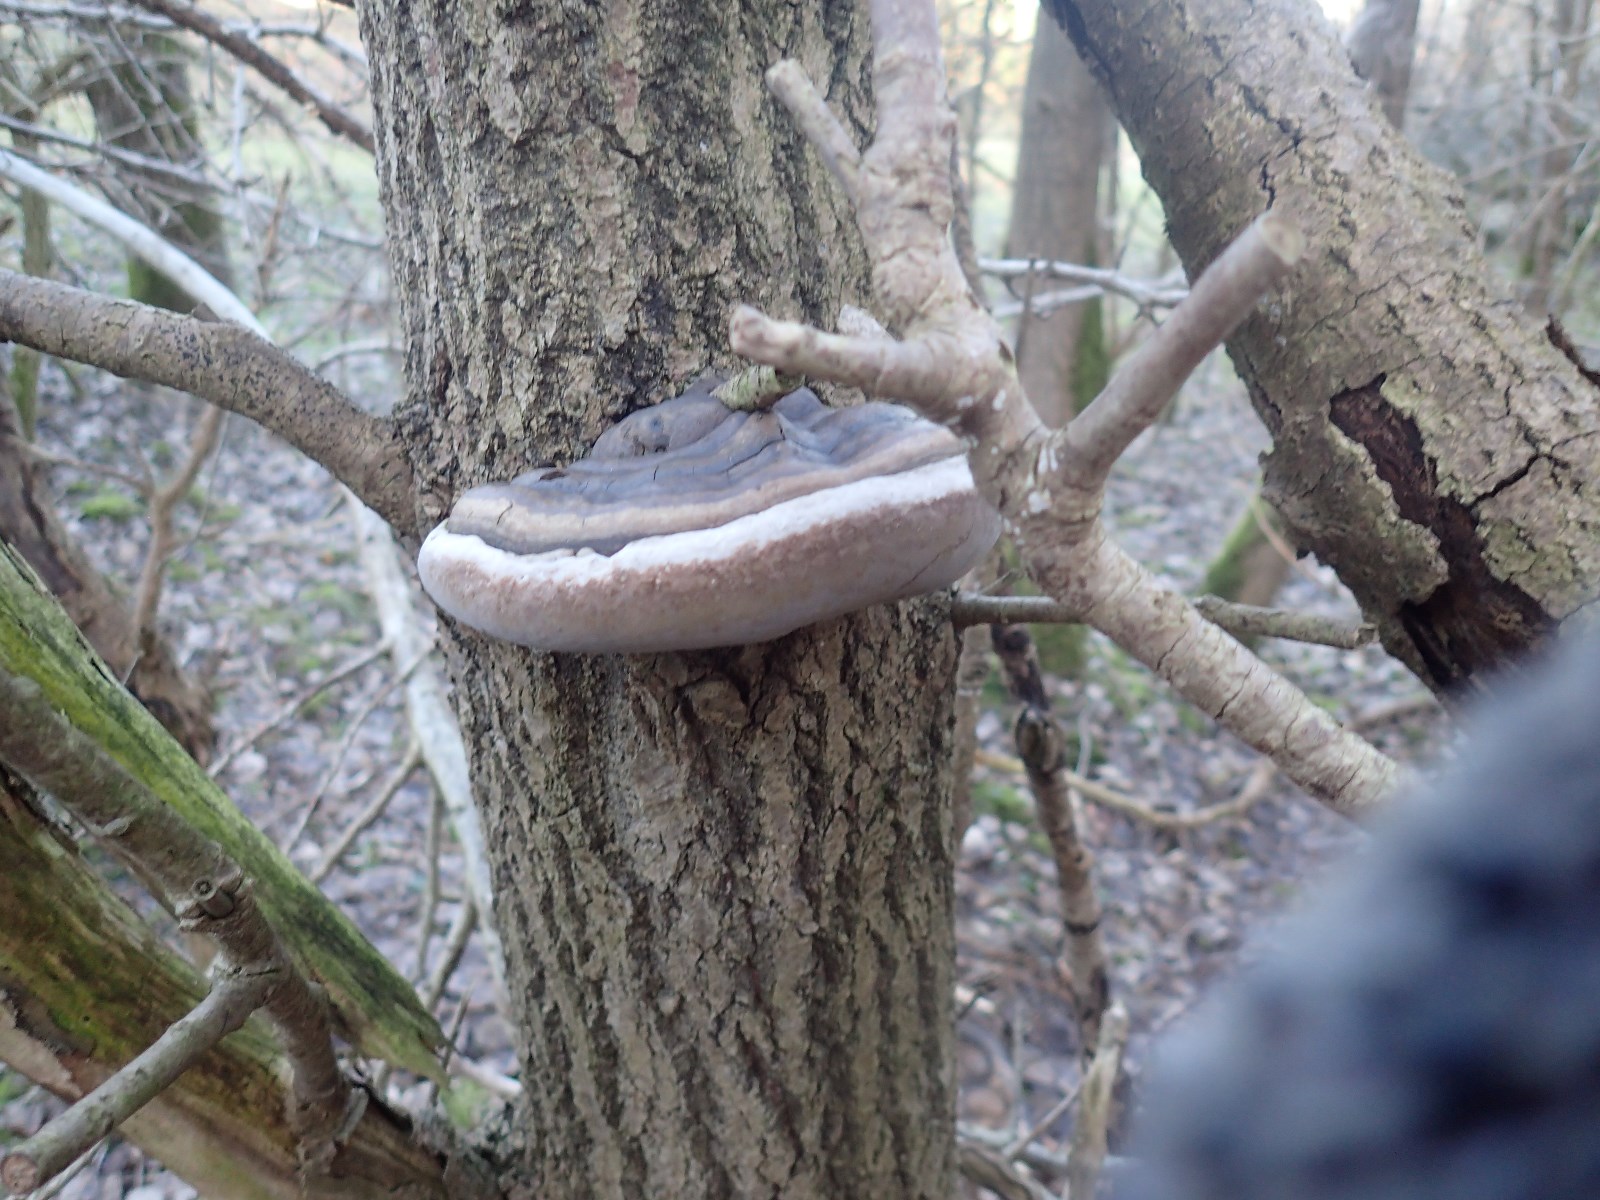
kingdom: Fungi
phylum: Basidiomycota
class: Agaricomycetes
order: Hymenochaetales
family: Hymenochaetaceae
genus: Phellinus
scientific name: Phellinus populicola
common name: poppel-ildporesvamp
